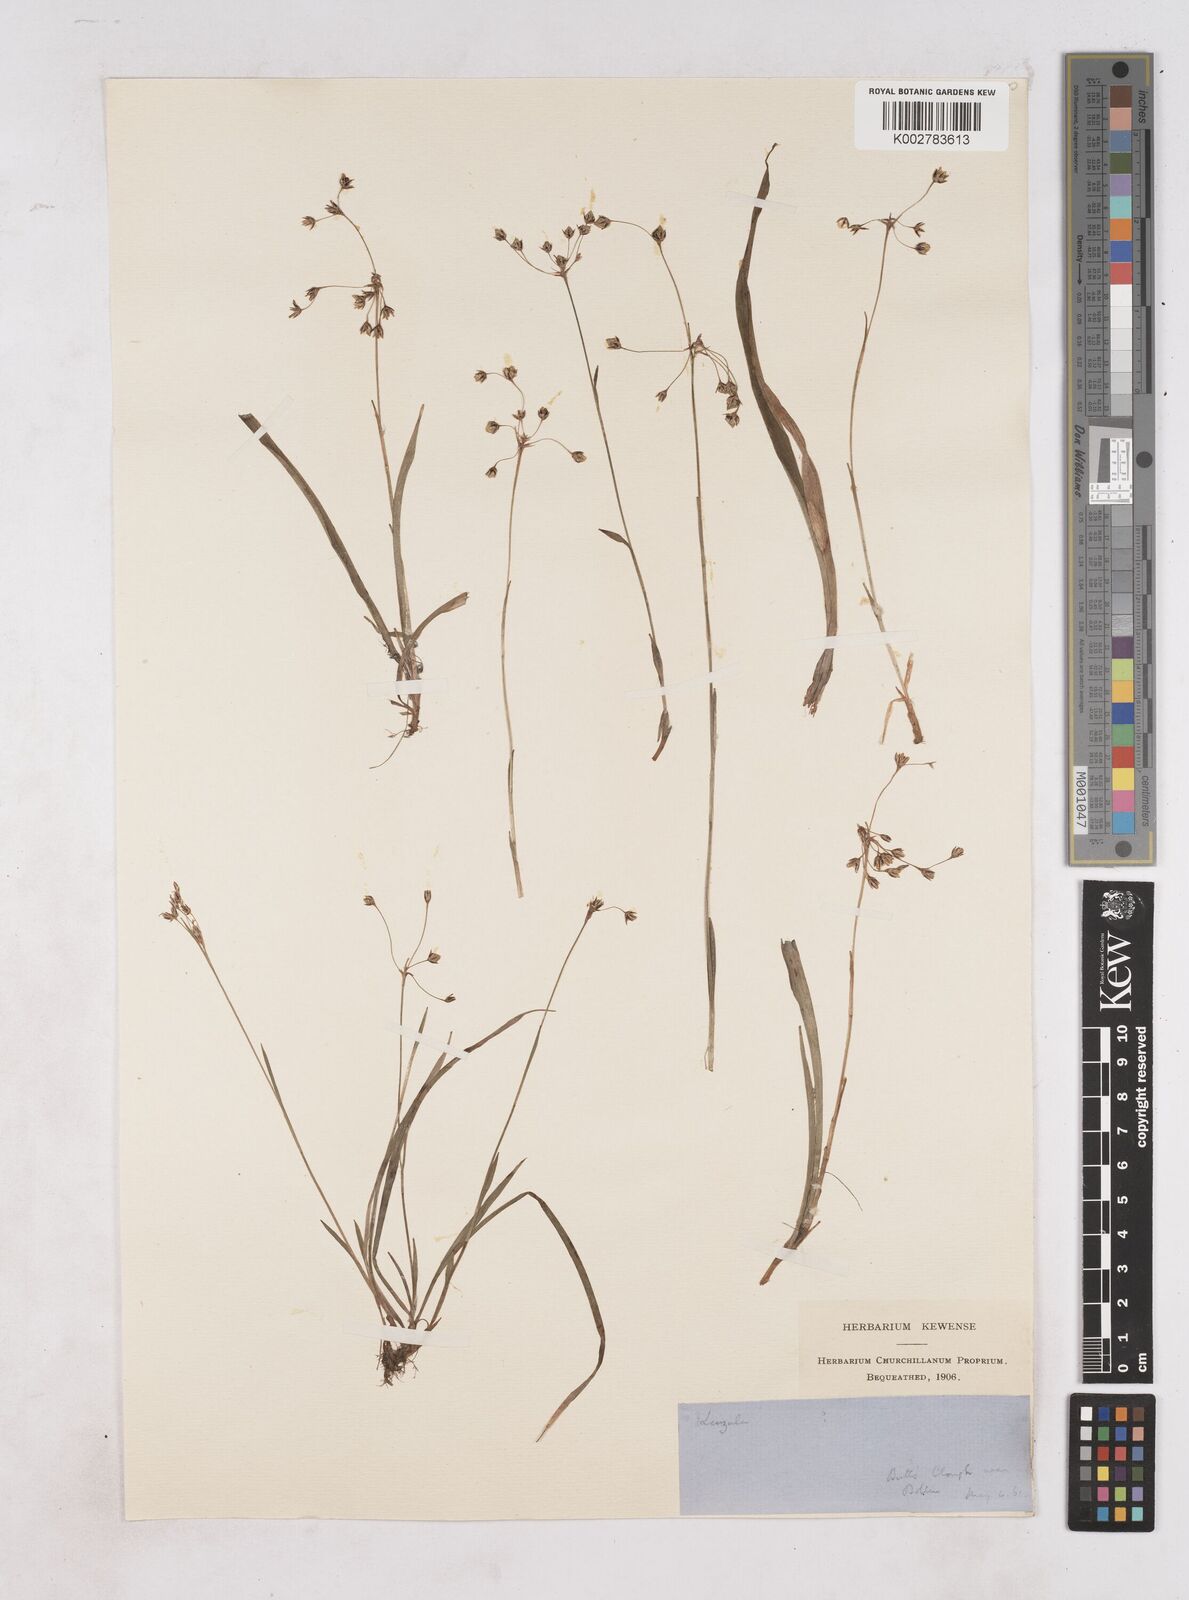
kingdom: Plantae
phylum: Tracheophyta
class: Liliopsida
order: Poales
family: Juncaceae
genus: Luzula
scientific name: Luzula
